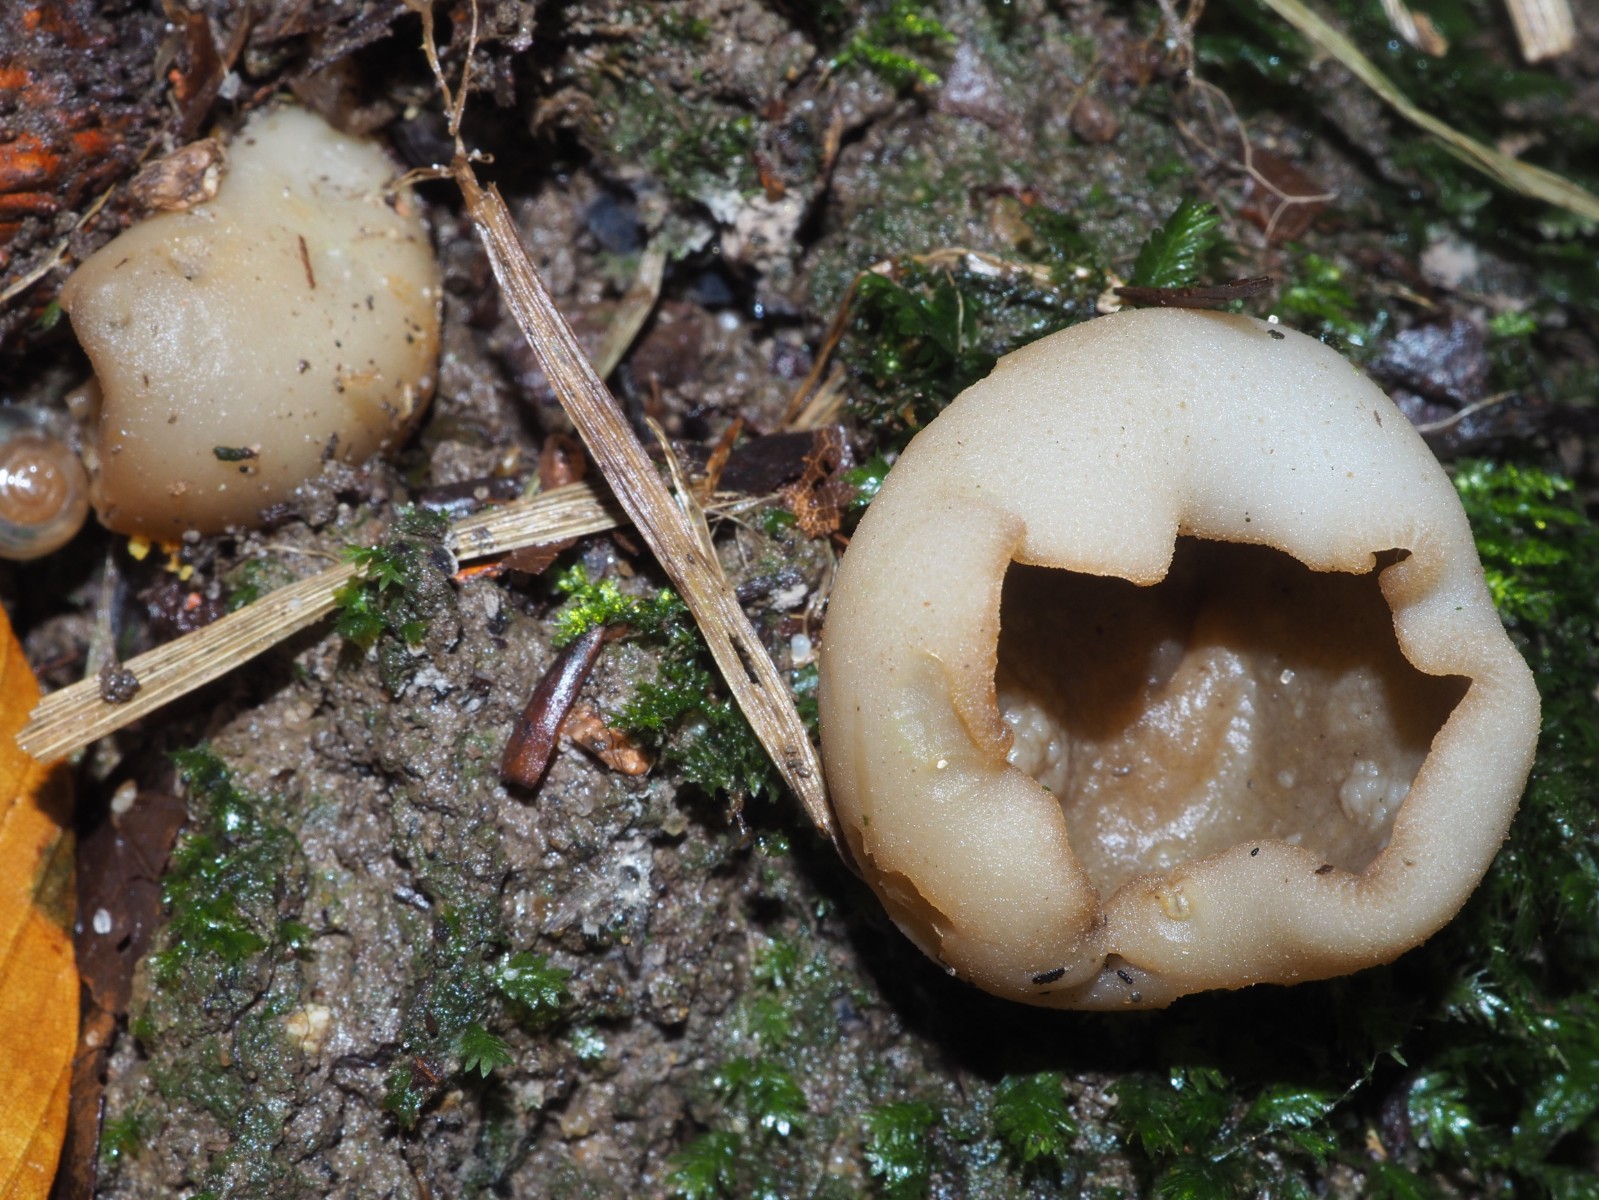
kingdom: Fungi
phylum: Ascomycota
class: Pezizomycetes
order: Pezizales
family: Pezizaceae
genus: Paragalactinia
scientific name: Paragalactinia succosa
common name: gulmælket bægersvamp
